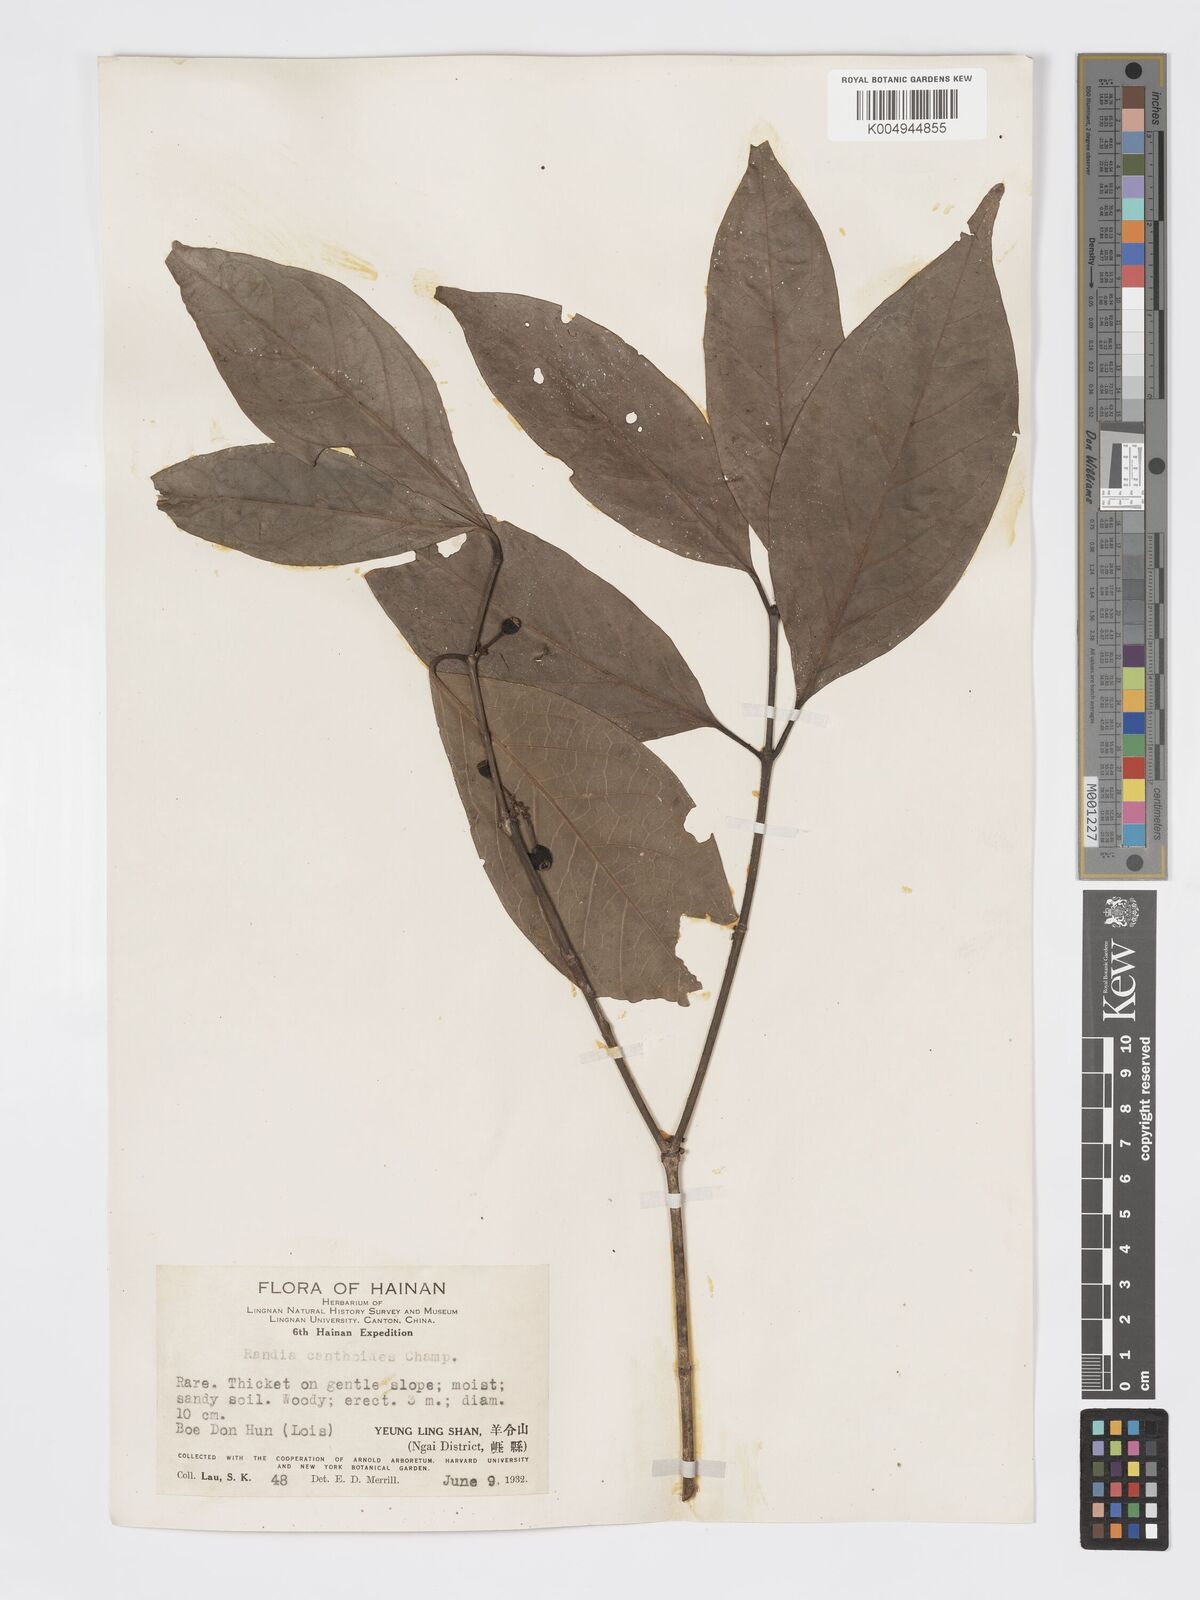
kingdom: Plantae
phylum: Tracheophyta
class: Magnoliopsida
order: Gentianales
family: Rubiaceae
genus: Aidia
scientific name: Aidia canthioides
